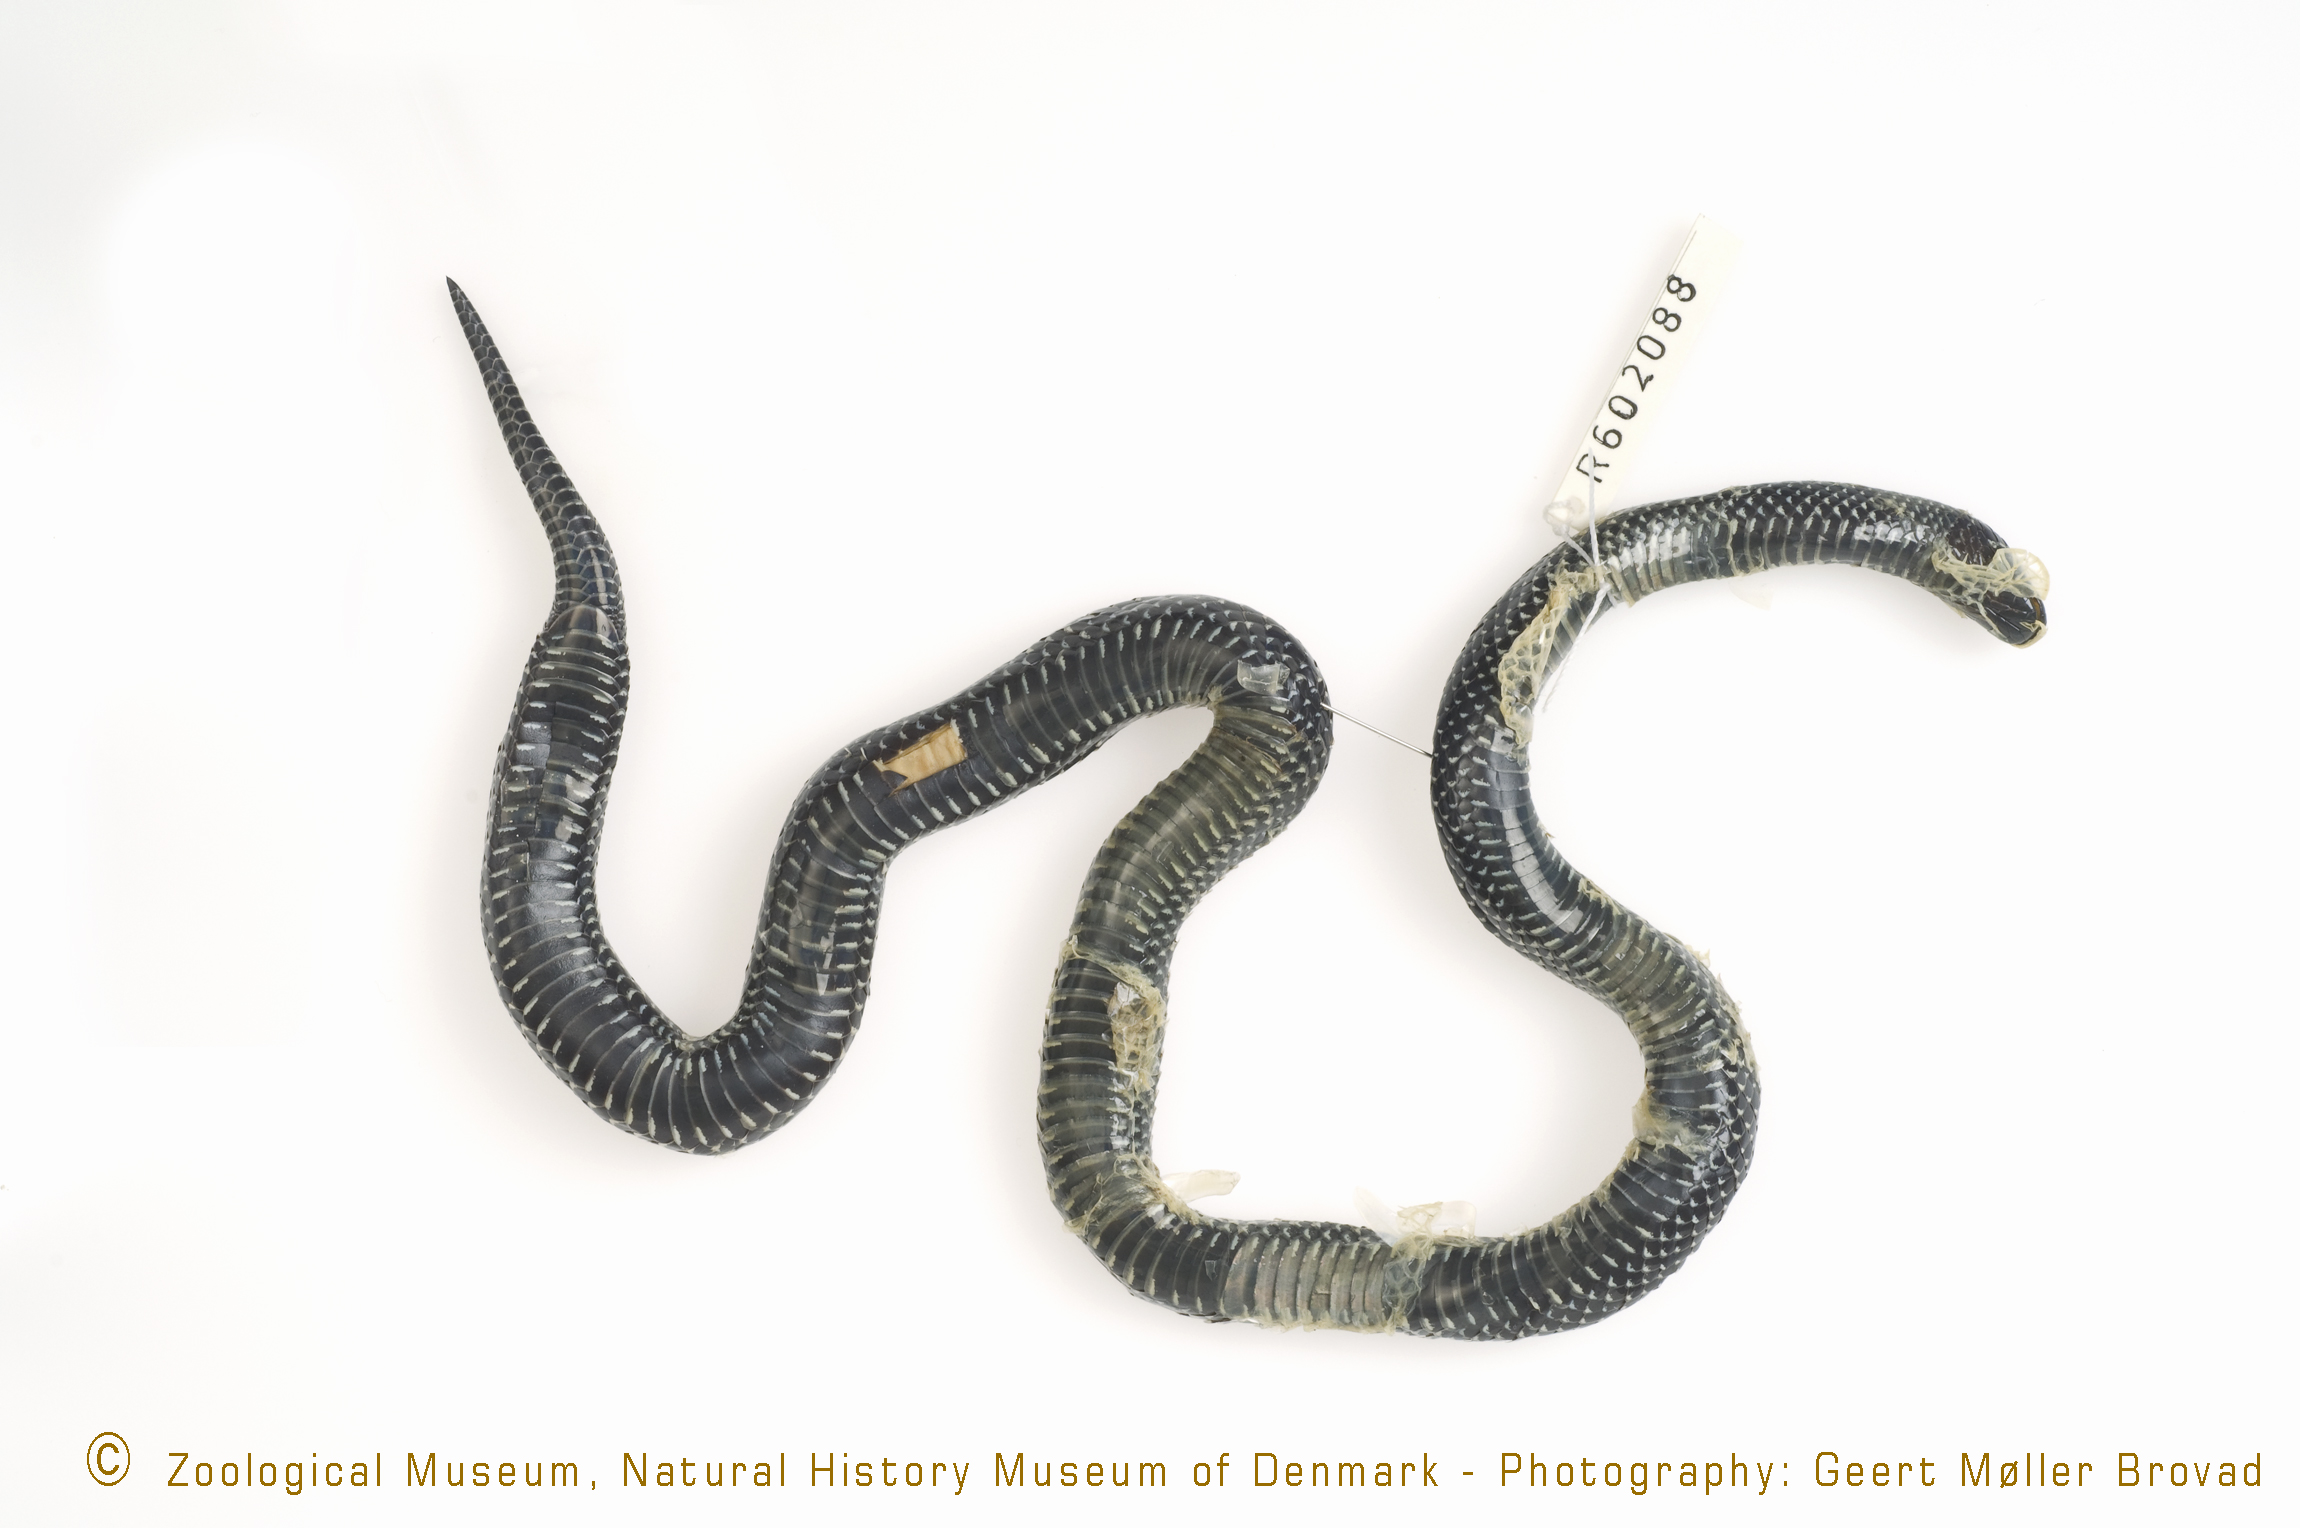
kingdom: Animalia
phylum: Chordata
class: Squamata
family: Lamprophiidae
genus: Lycophidion
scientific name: Lycophidion uzungwense
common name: Red-snouted wolf snake
